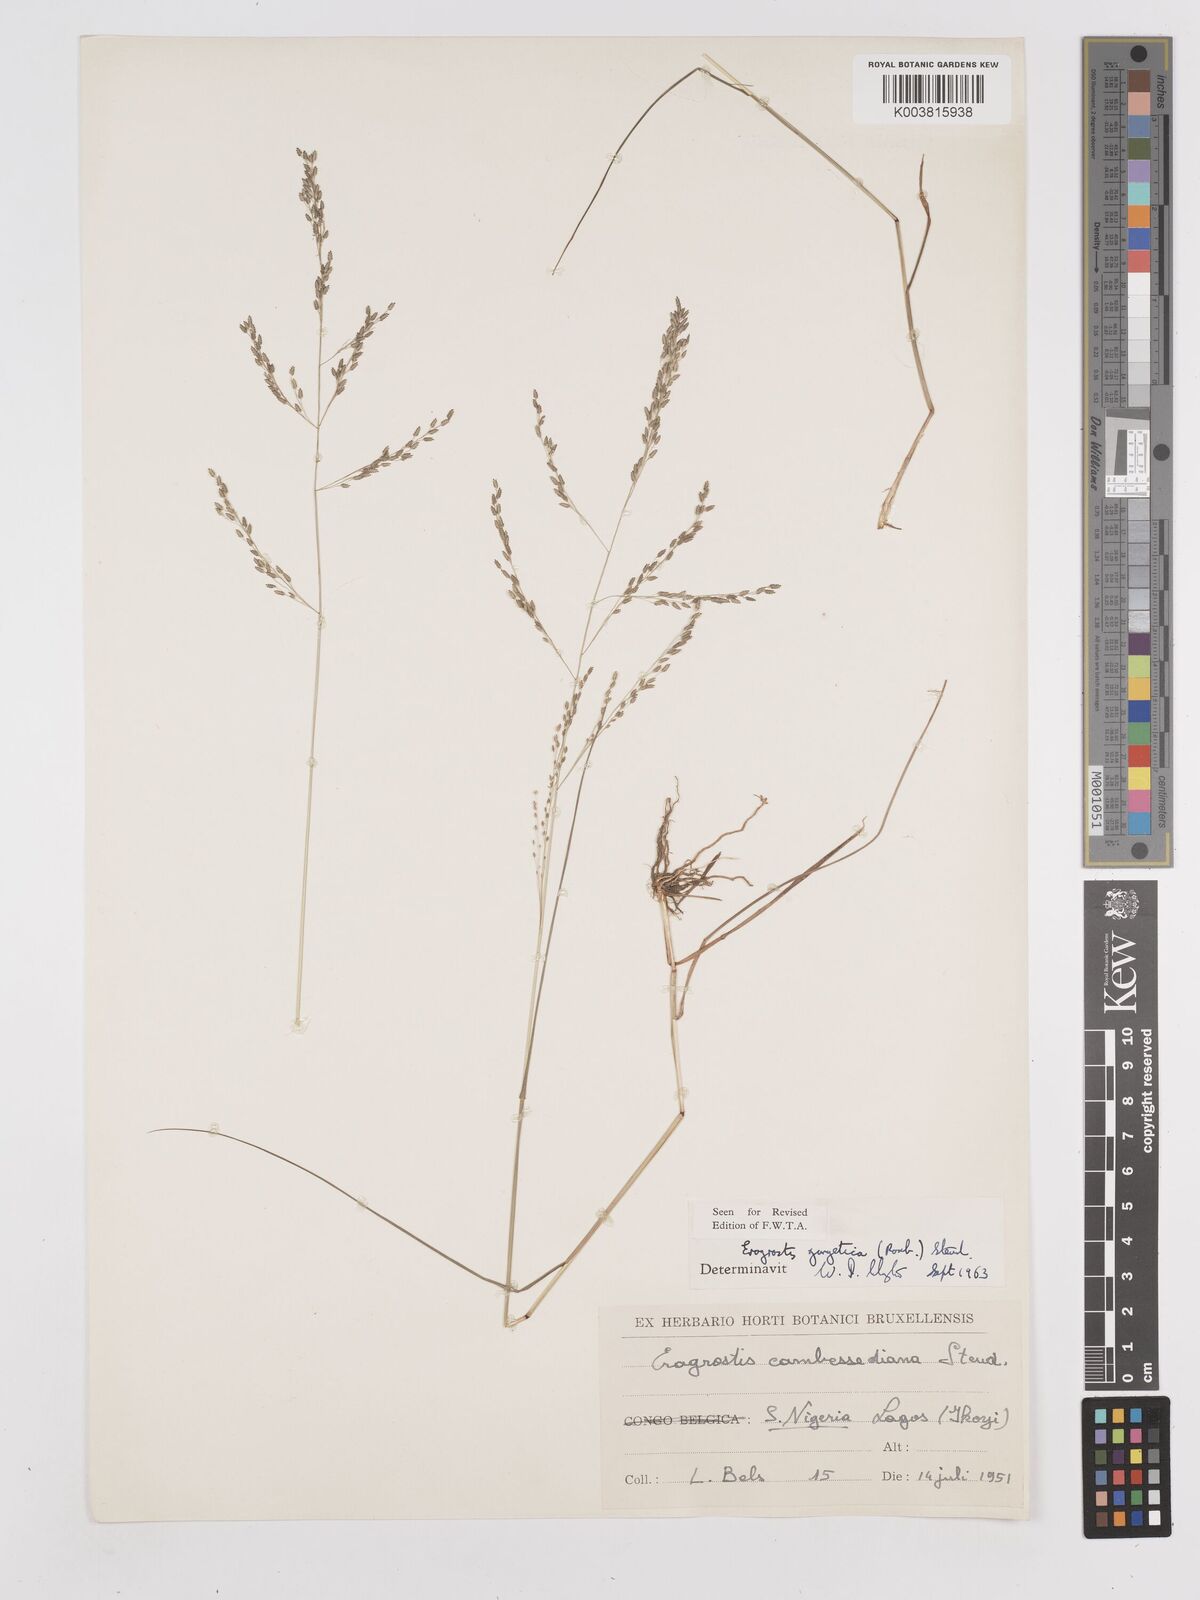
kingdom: Plantae
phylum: Tracheophyta
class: Liliopsida
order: Poales
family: Poaceae
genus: Eragrostis
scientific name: Eragrostis gangetica
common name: Slimflower lovegrass
